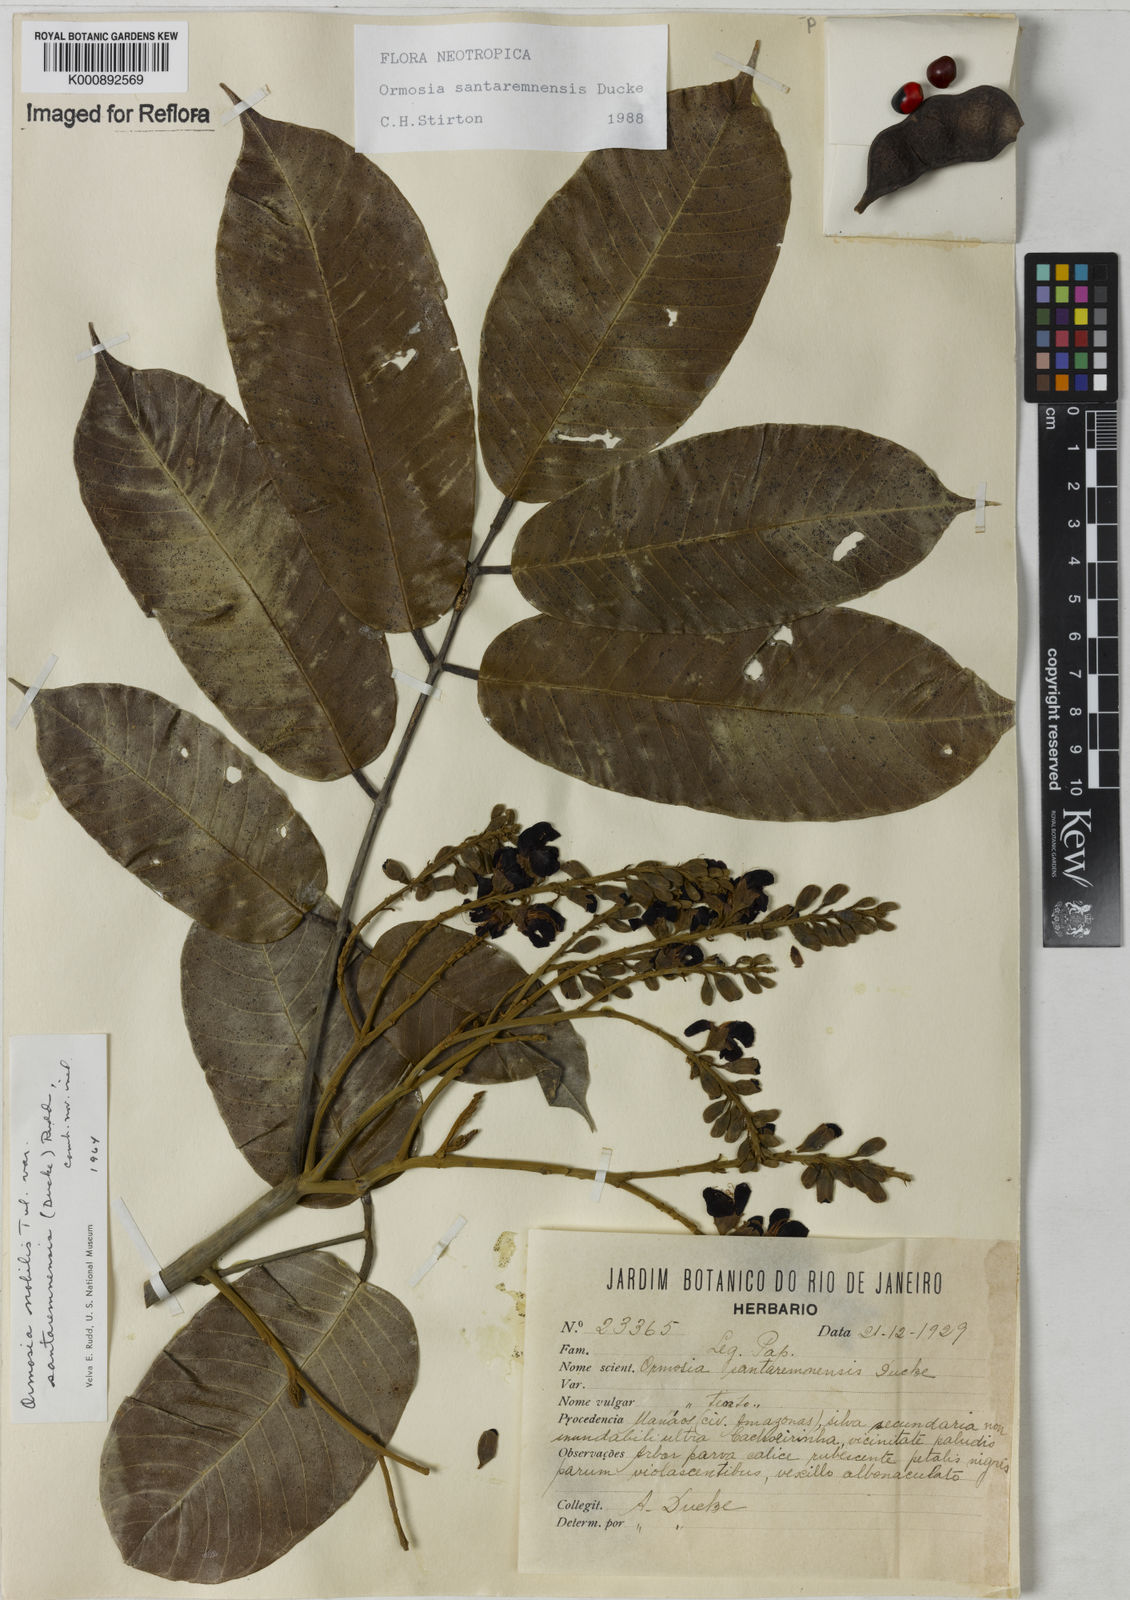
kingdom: Plantae
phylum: Tracheophyta
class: Magnoliopsida
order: Fabales
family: Fabaceae
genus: Ormosia
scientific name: Ormosia santaremnensis
